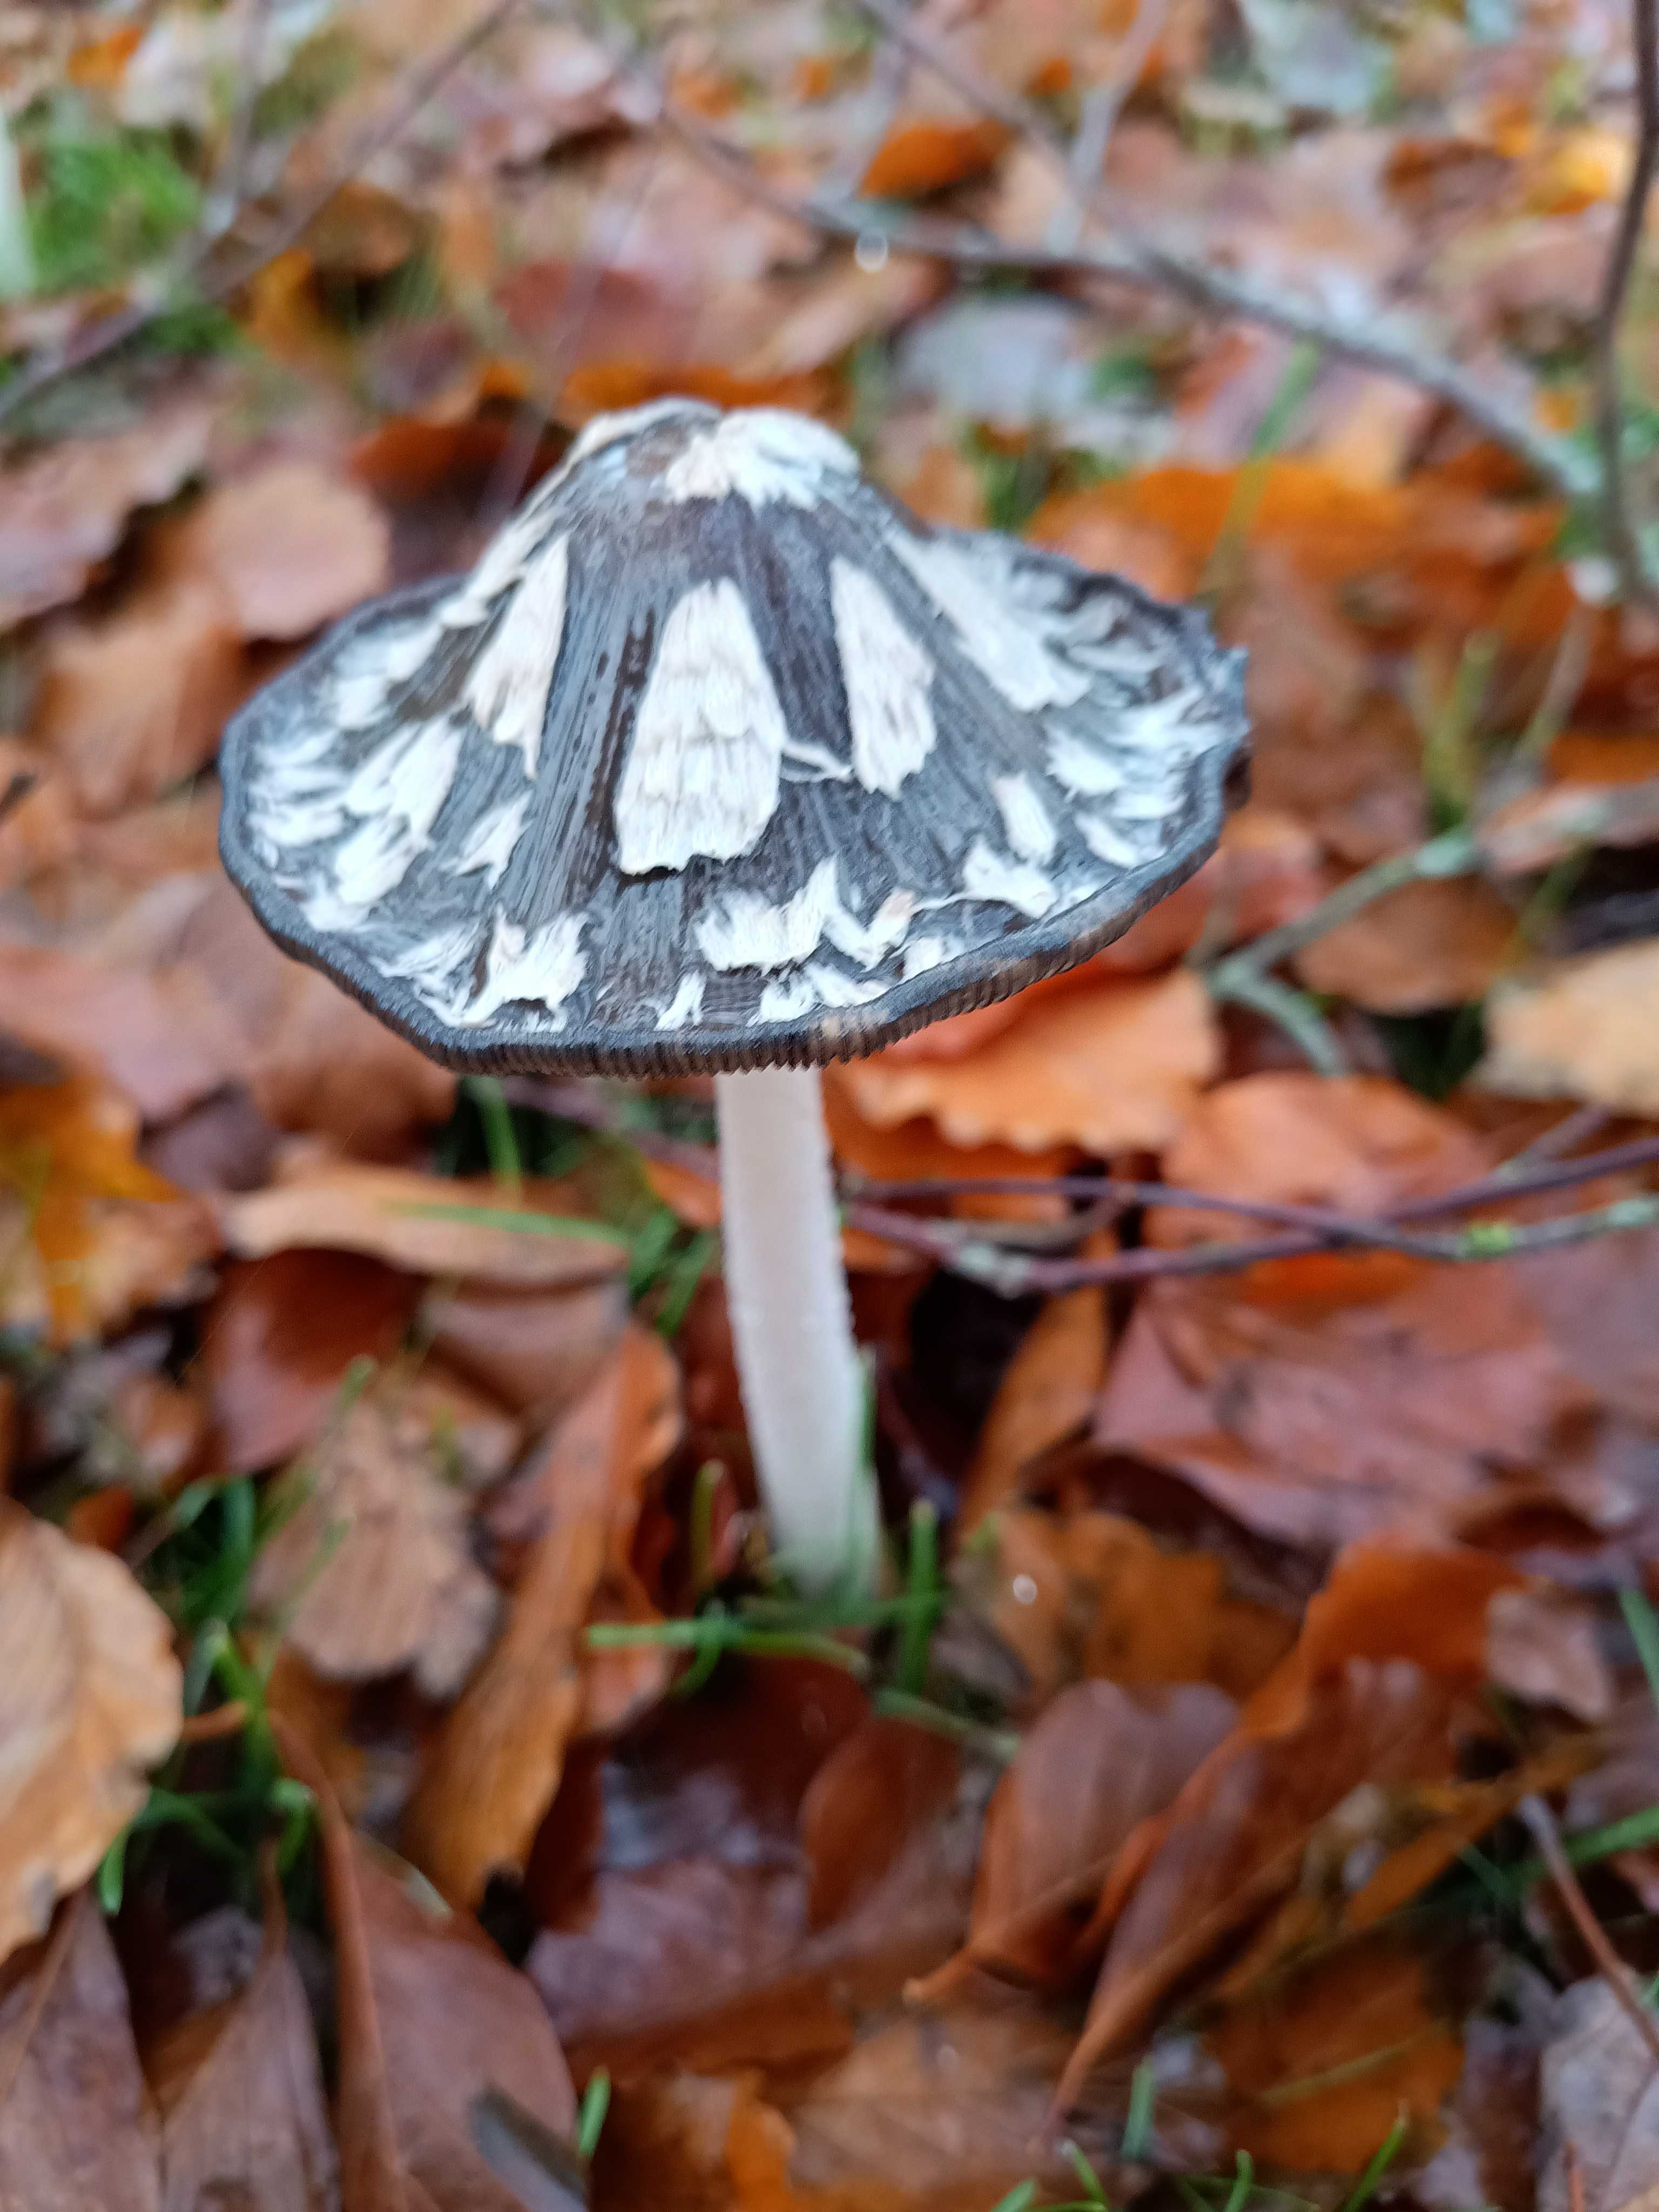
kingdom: Fungi
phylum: Basidiomycota
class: Agaricomycetes
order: Agaricales
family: Psathyrellaceae
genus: Coprinopsis
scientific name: Coprinopsis picacea
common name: skade-blækhat
